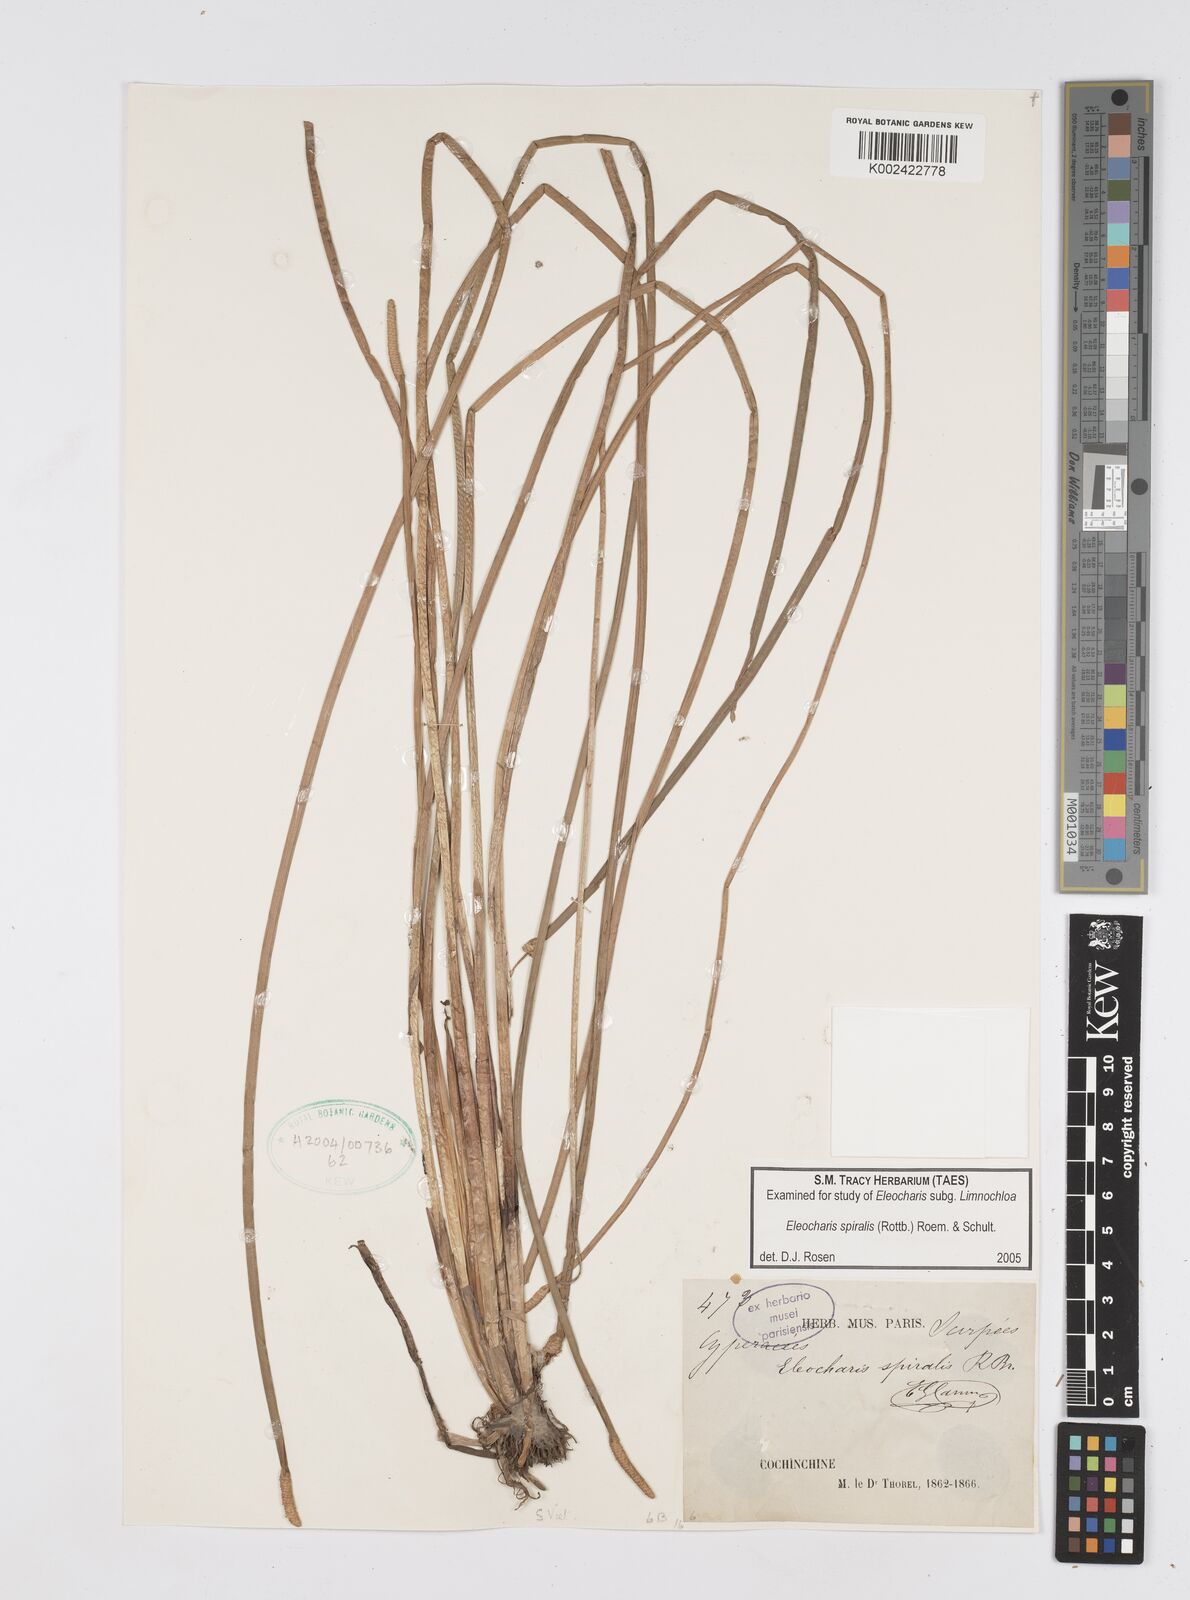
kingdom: Plantae
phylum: Tracheophyta
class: Liliopsida
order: Poales
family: Cyperaceae
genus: Eleocharis
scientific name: Eleocharis spiralis
